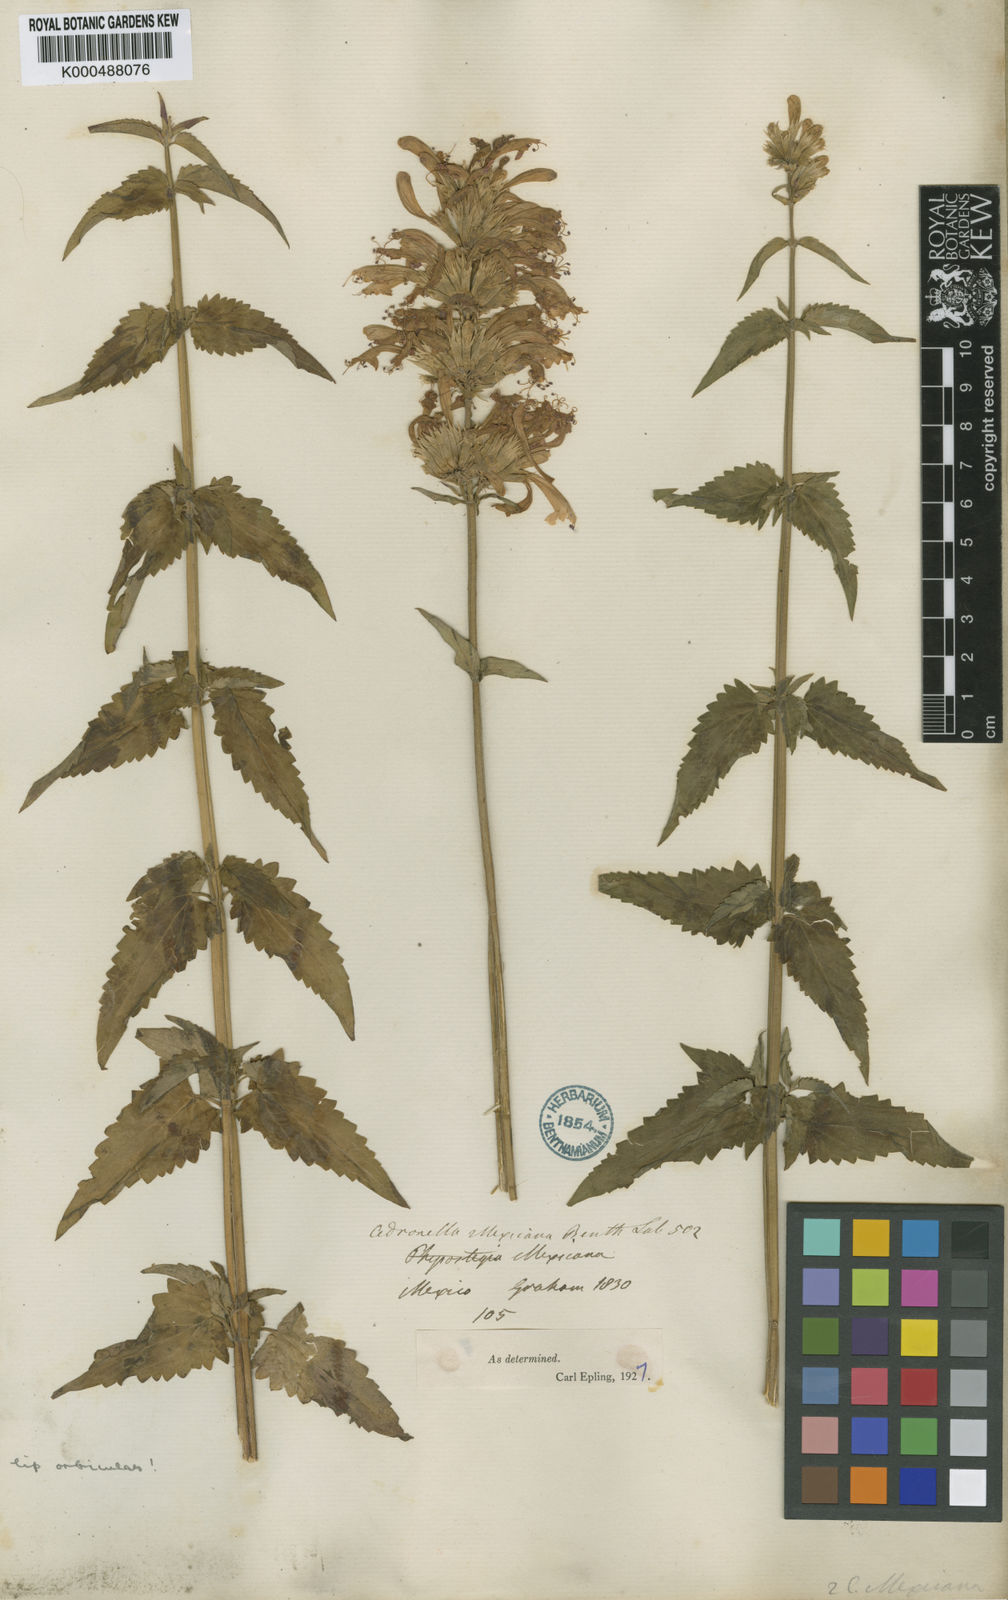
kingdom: Plantae
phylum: Tracheophyta
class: Magnoliopsida
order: Lamiales
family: Lamiaceae
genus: Agastache
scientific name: Agastache mexicana
